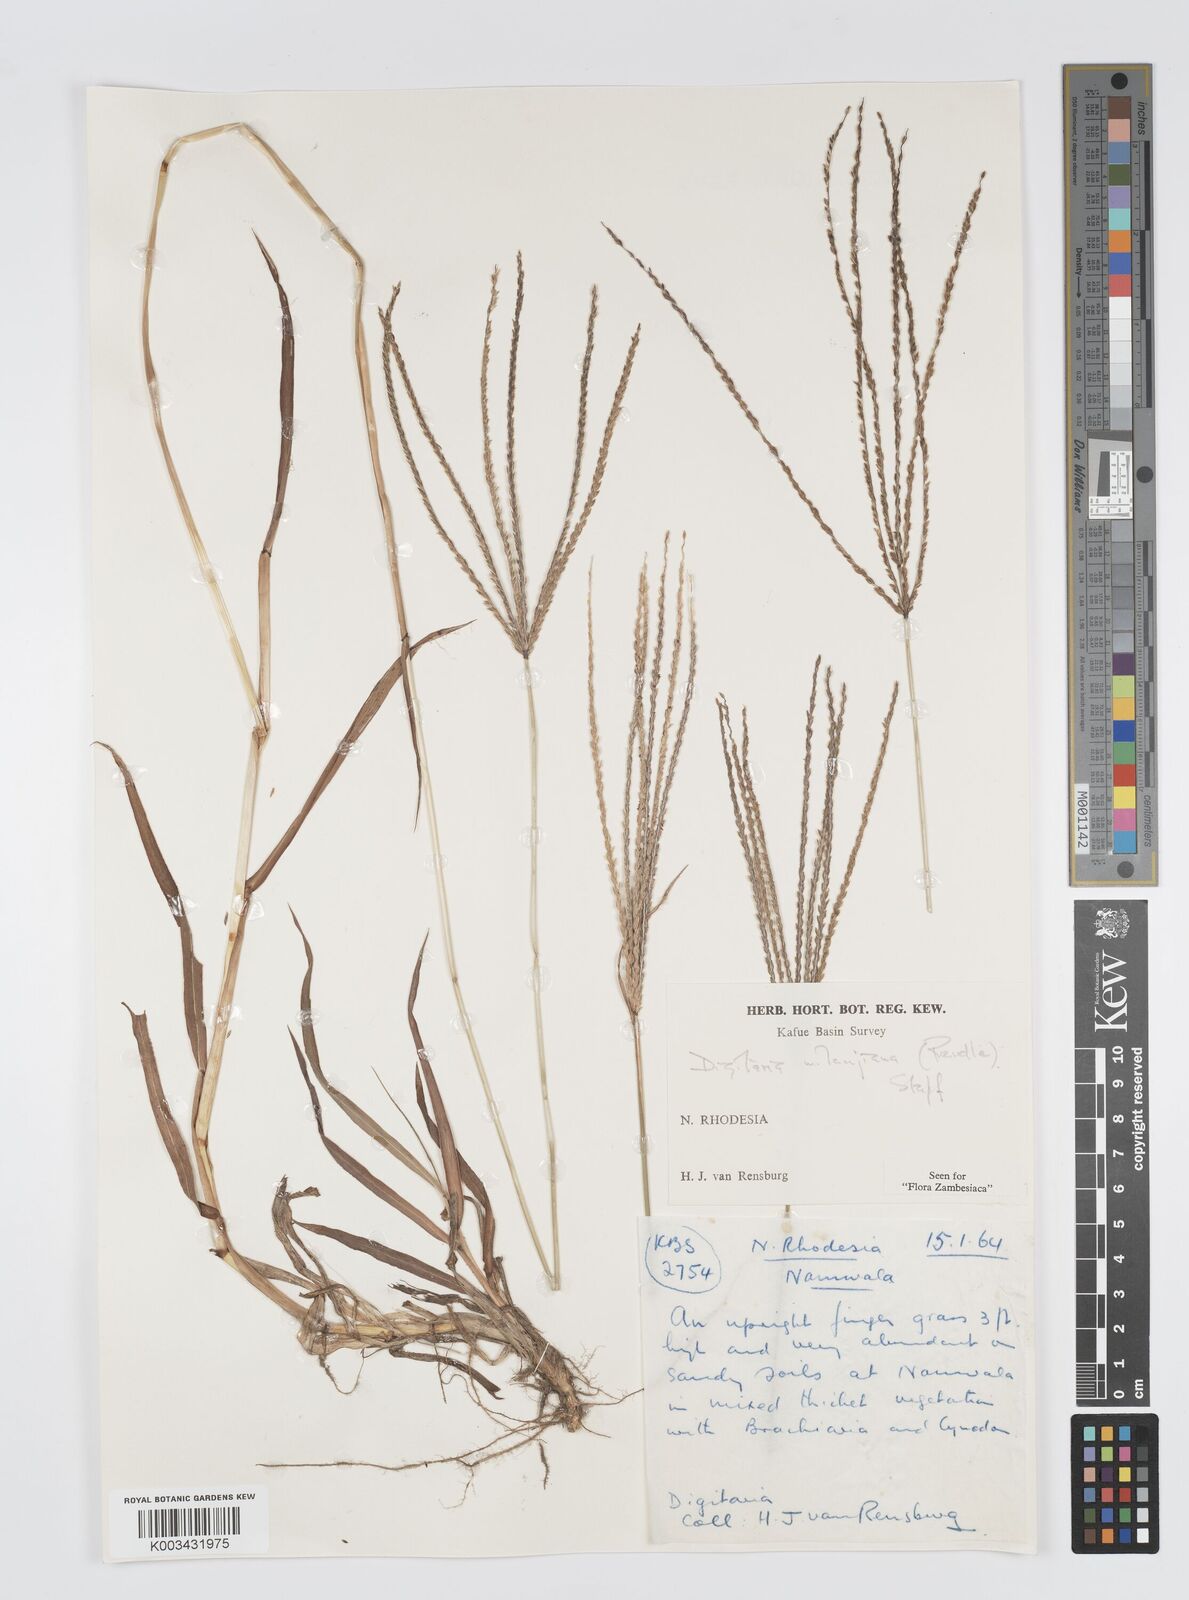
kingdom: Plantae
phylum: Tracheophyta
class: Liliopsida
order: Poales
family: Poaceae
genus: Digitaria
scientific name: Digitaria milanjiana
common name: Madagascar crabgrass
